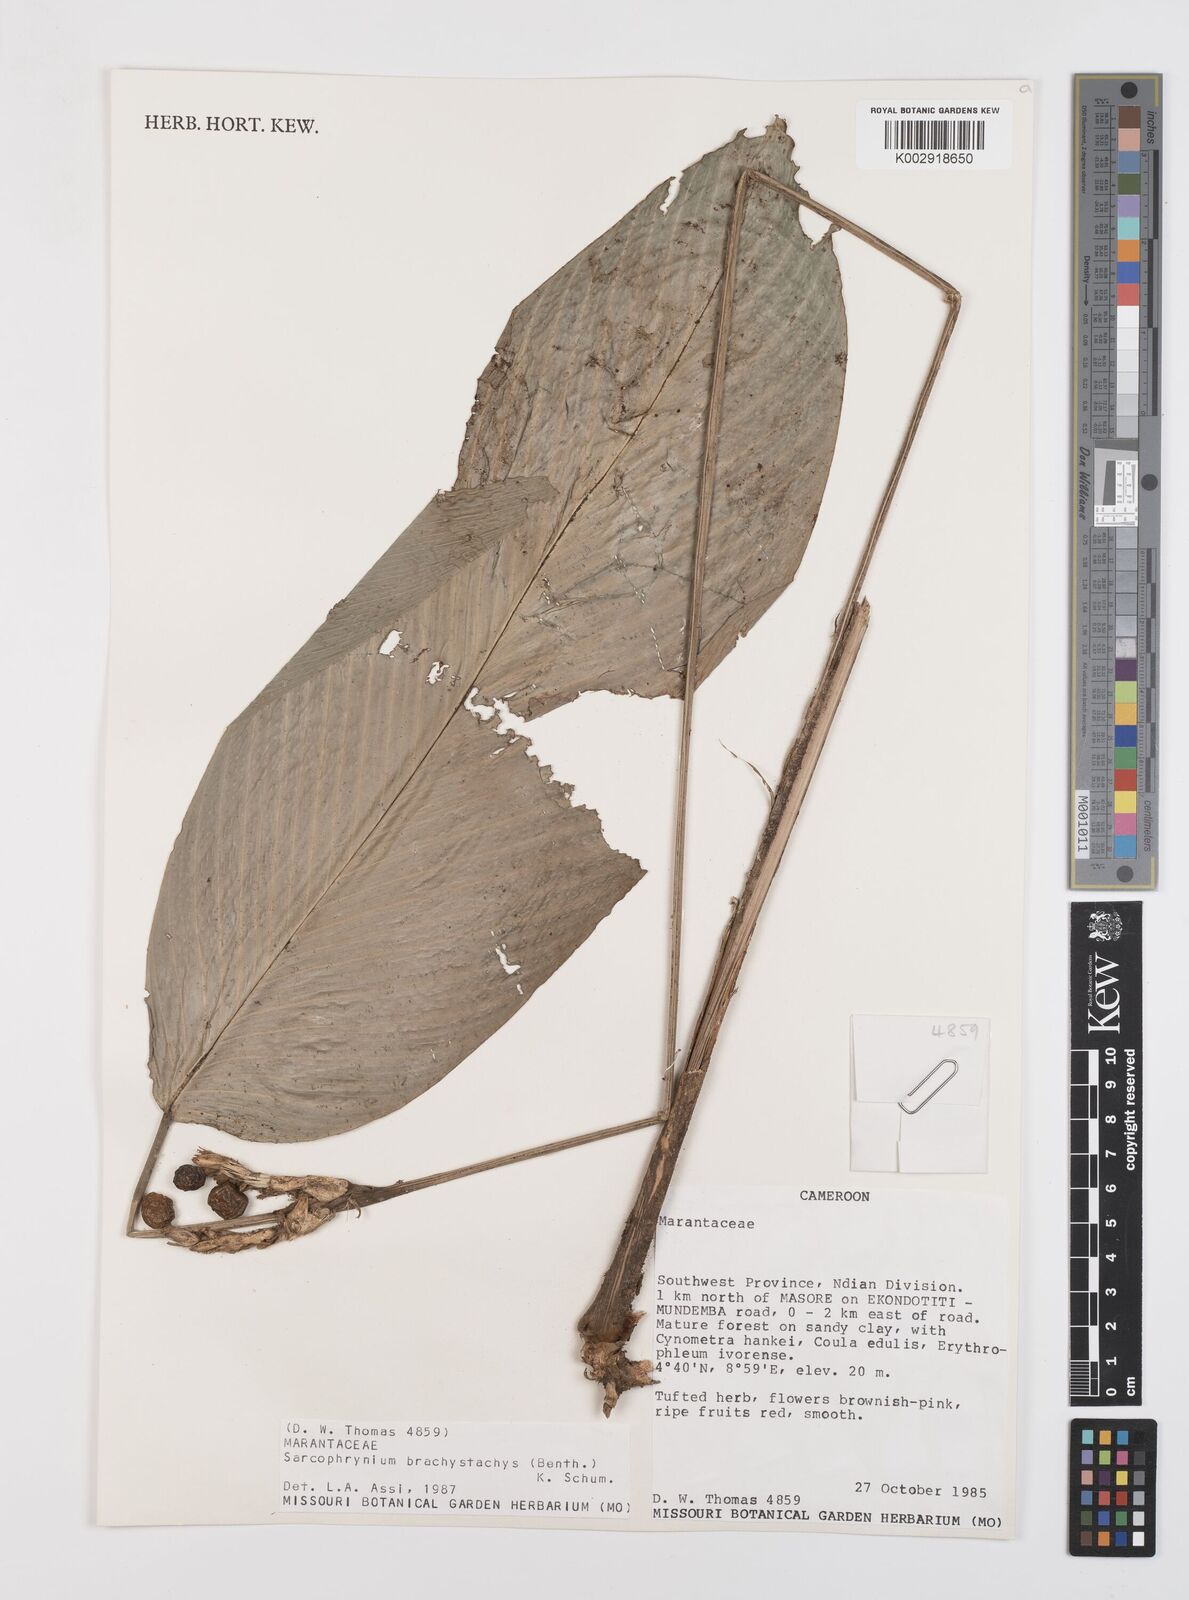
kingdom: Plantae
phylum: Tracheophyta
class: Liliopsida
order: Zingiberales
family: Marantaceae
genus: Sarcophrynium
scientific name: Sarcophrynium brachystachyum
